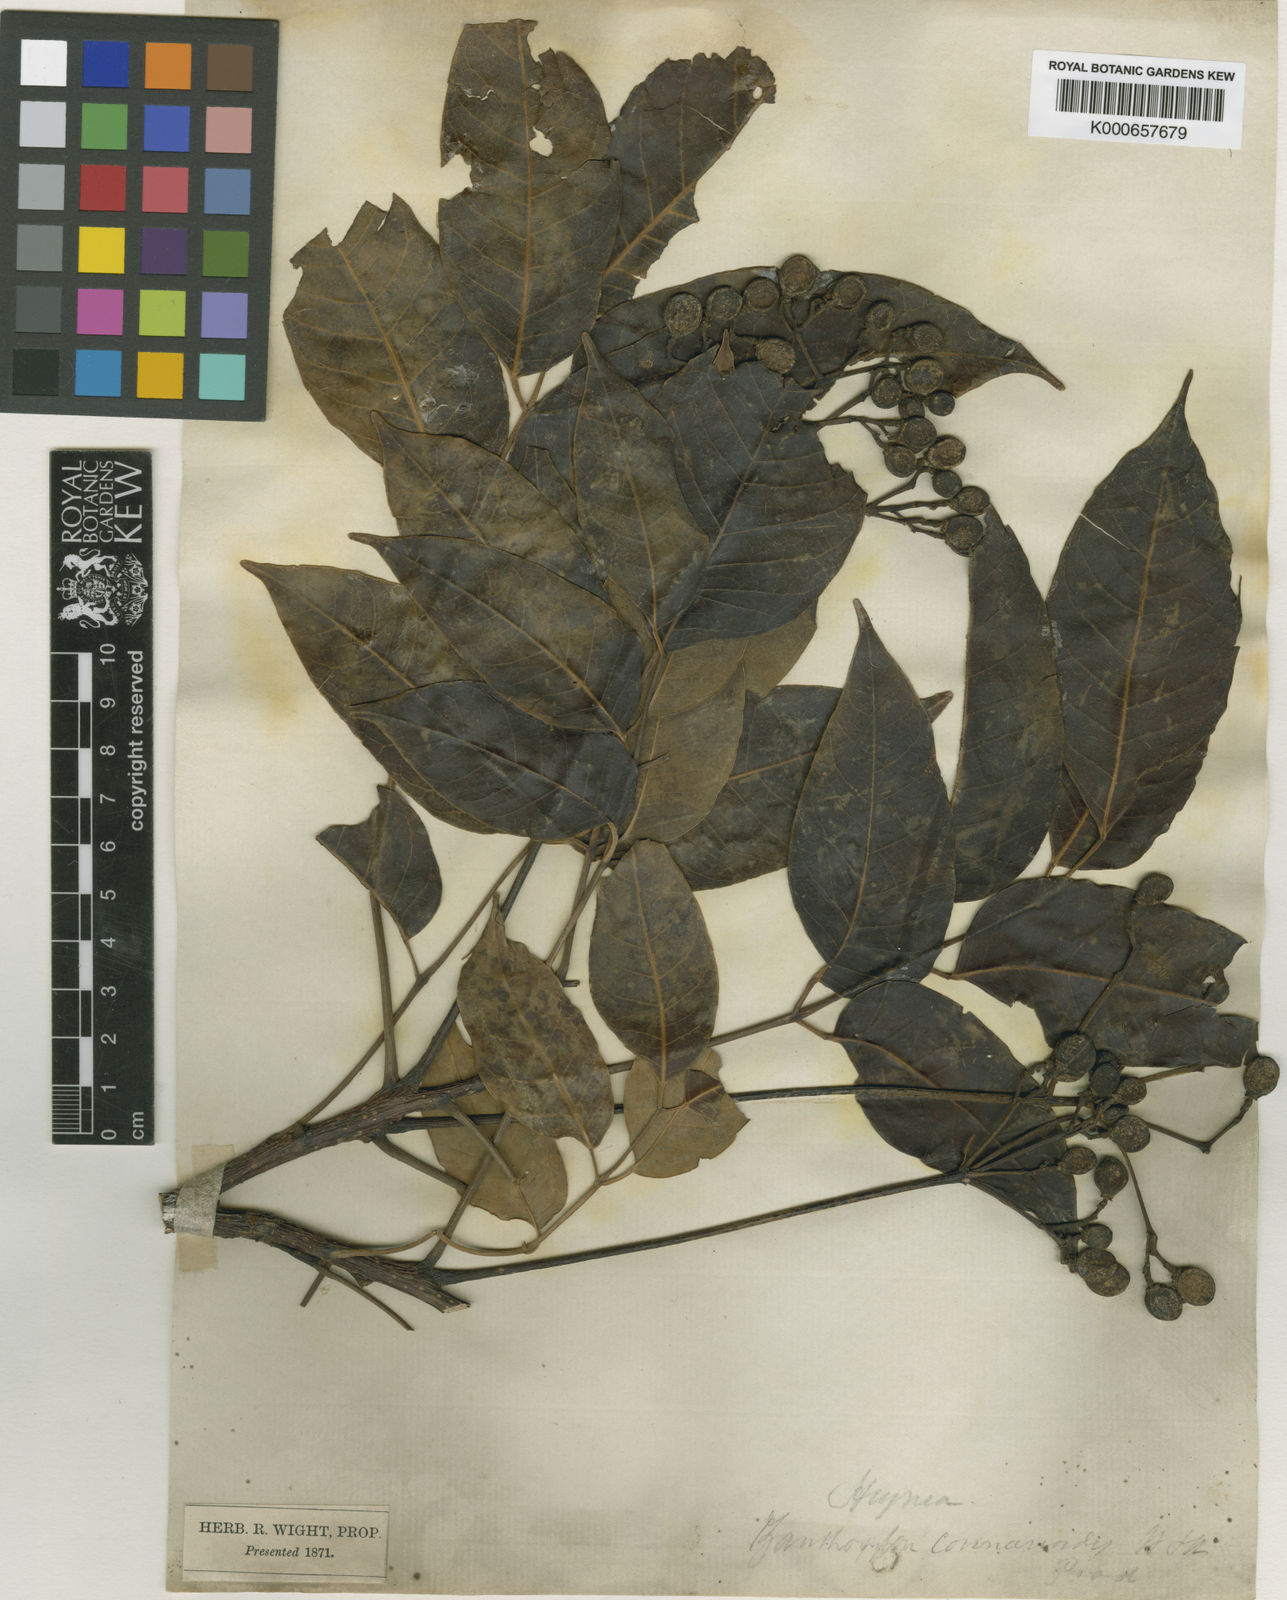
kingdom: Plantae
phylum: Tracheophyta
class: Magnoliopsida
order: Sapindales
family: Meliaceae
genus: Heynea
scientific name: Heynea trijuga
